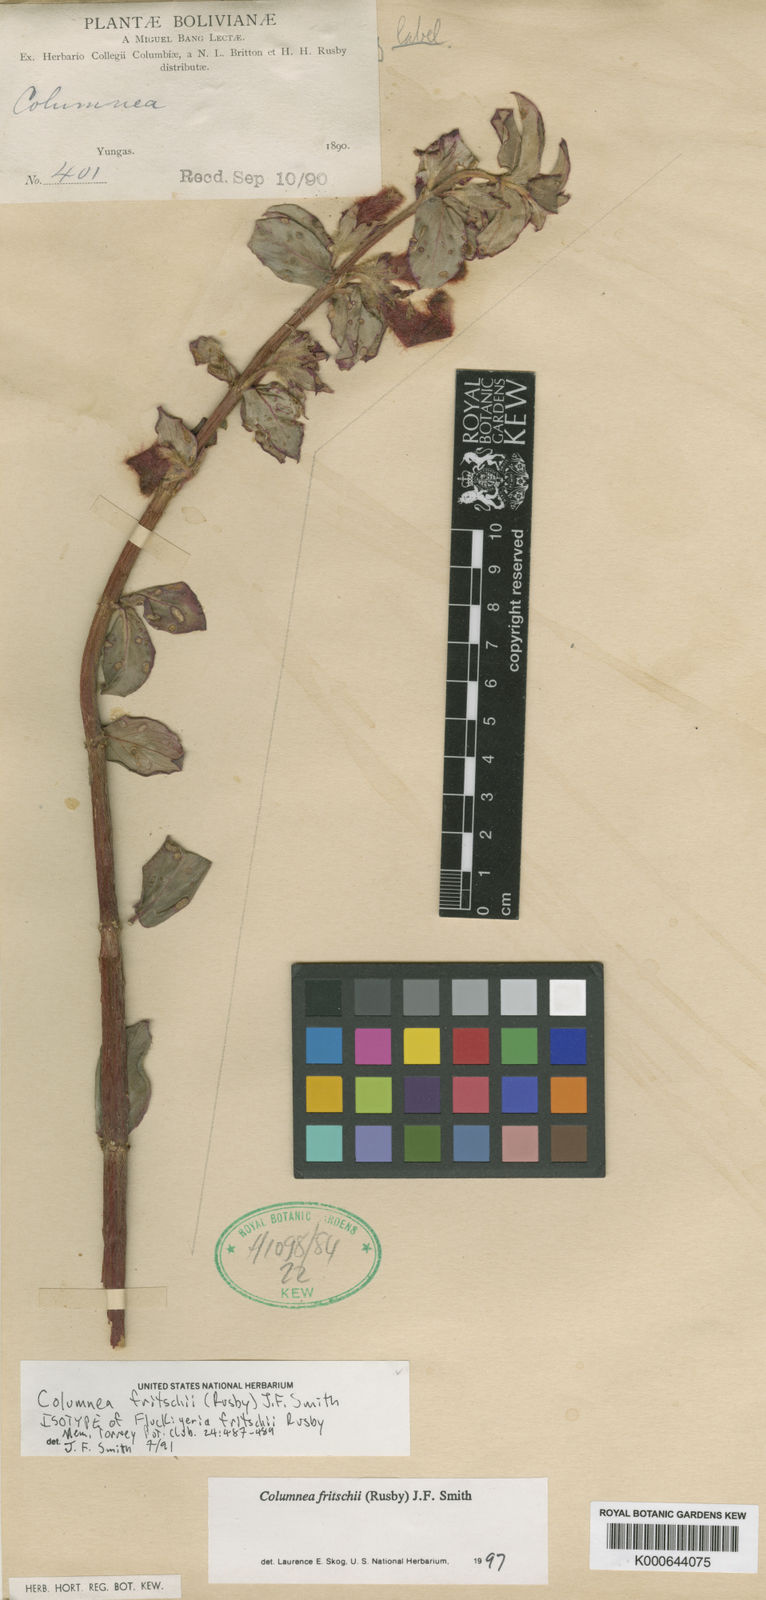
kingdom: Plantae
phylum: Tracheophyta
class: Magnoliopsida
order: Lamiales
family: Gesneriaceae
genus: Columnea
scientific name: Columnea fritschii
